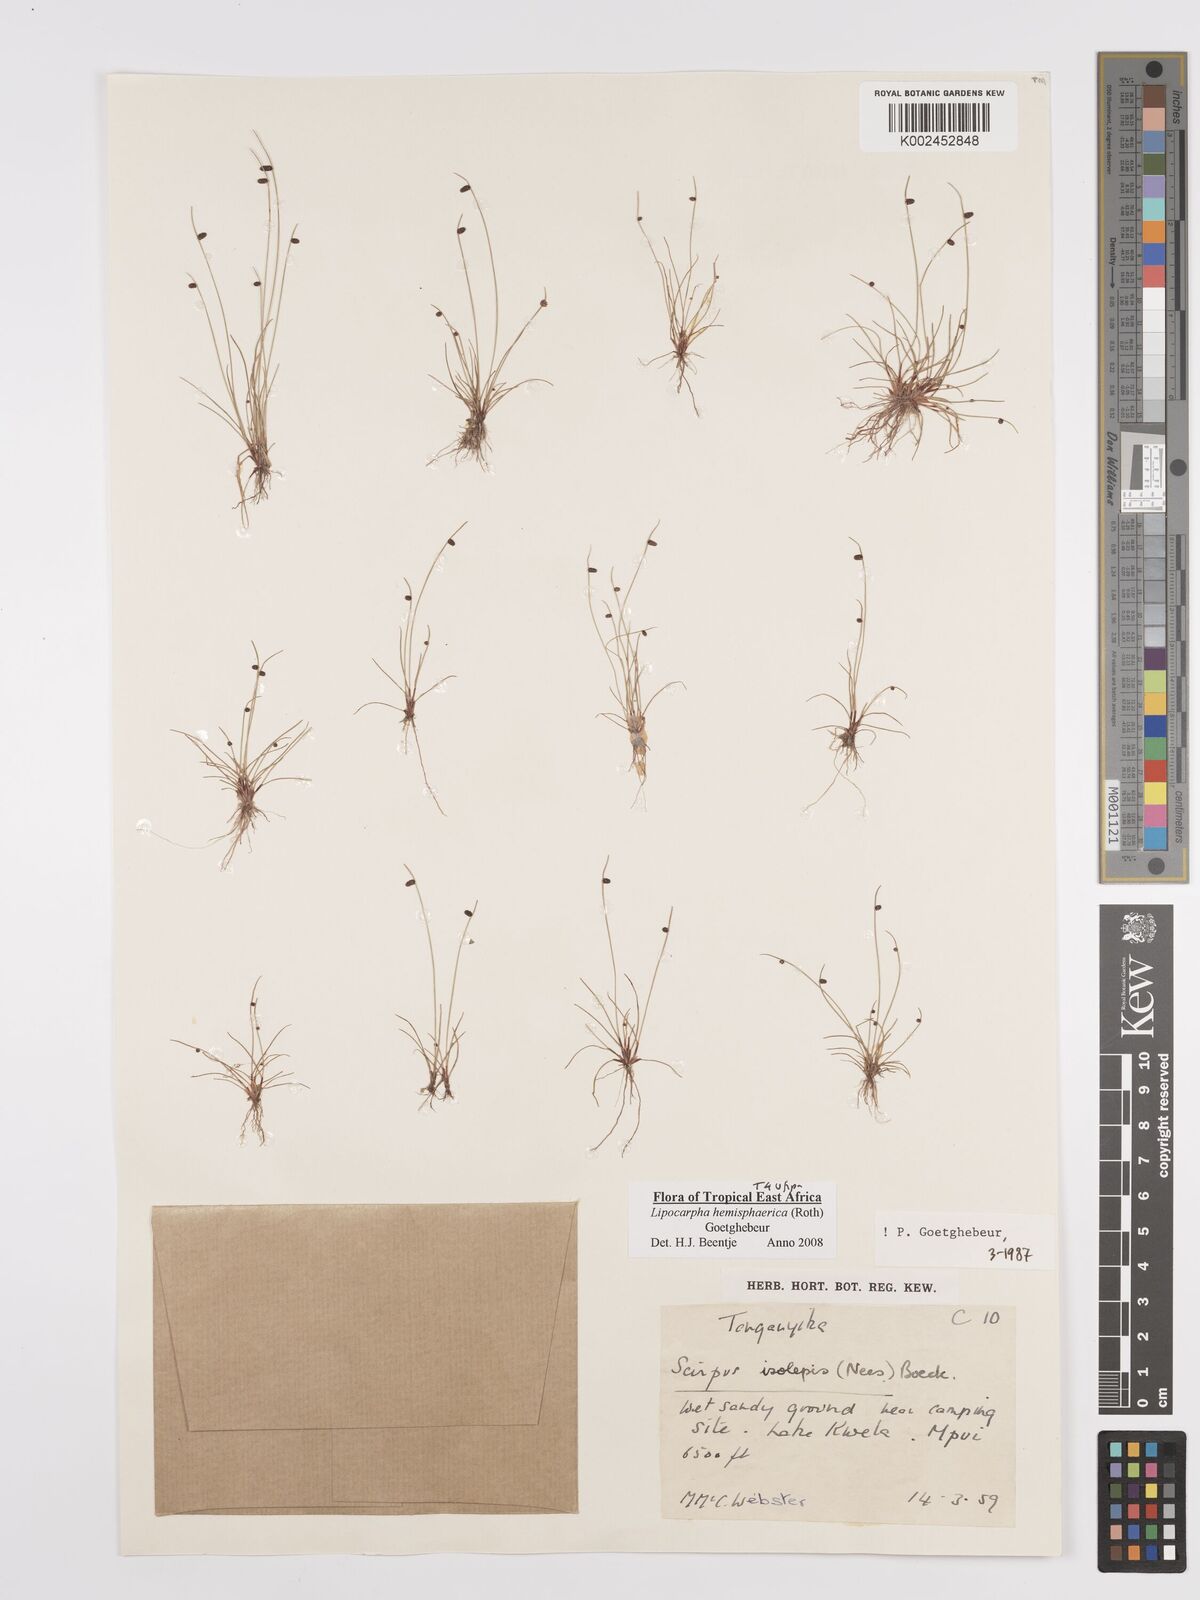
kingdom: Plantae
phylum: Tracheophyta
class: Liliopsida
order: Poales
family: Cyperaceae
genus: Cyperus
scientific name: Cyperus hemisphaericus
